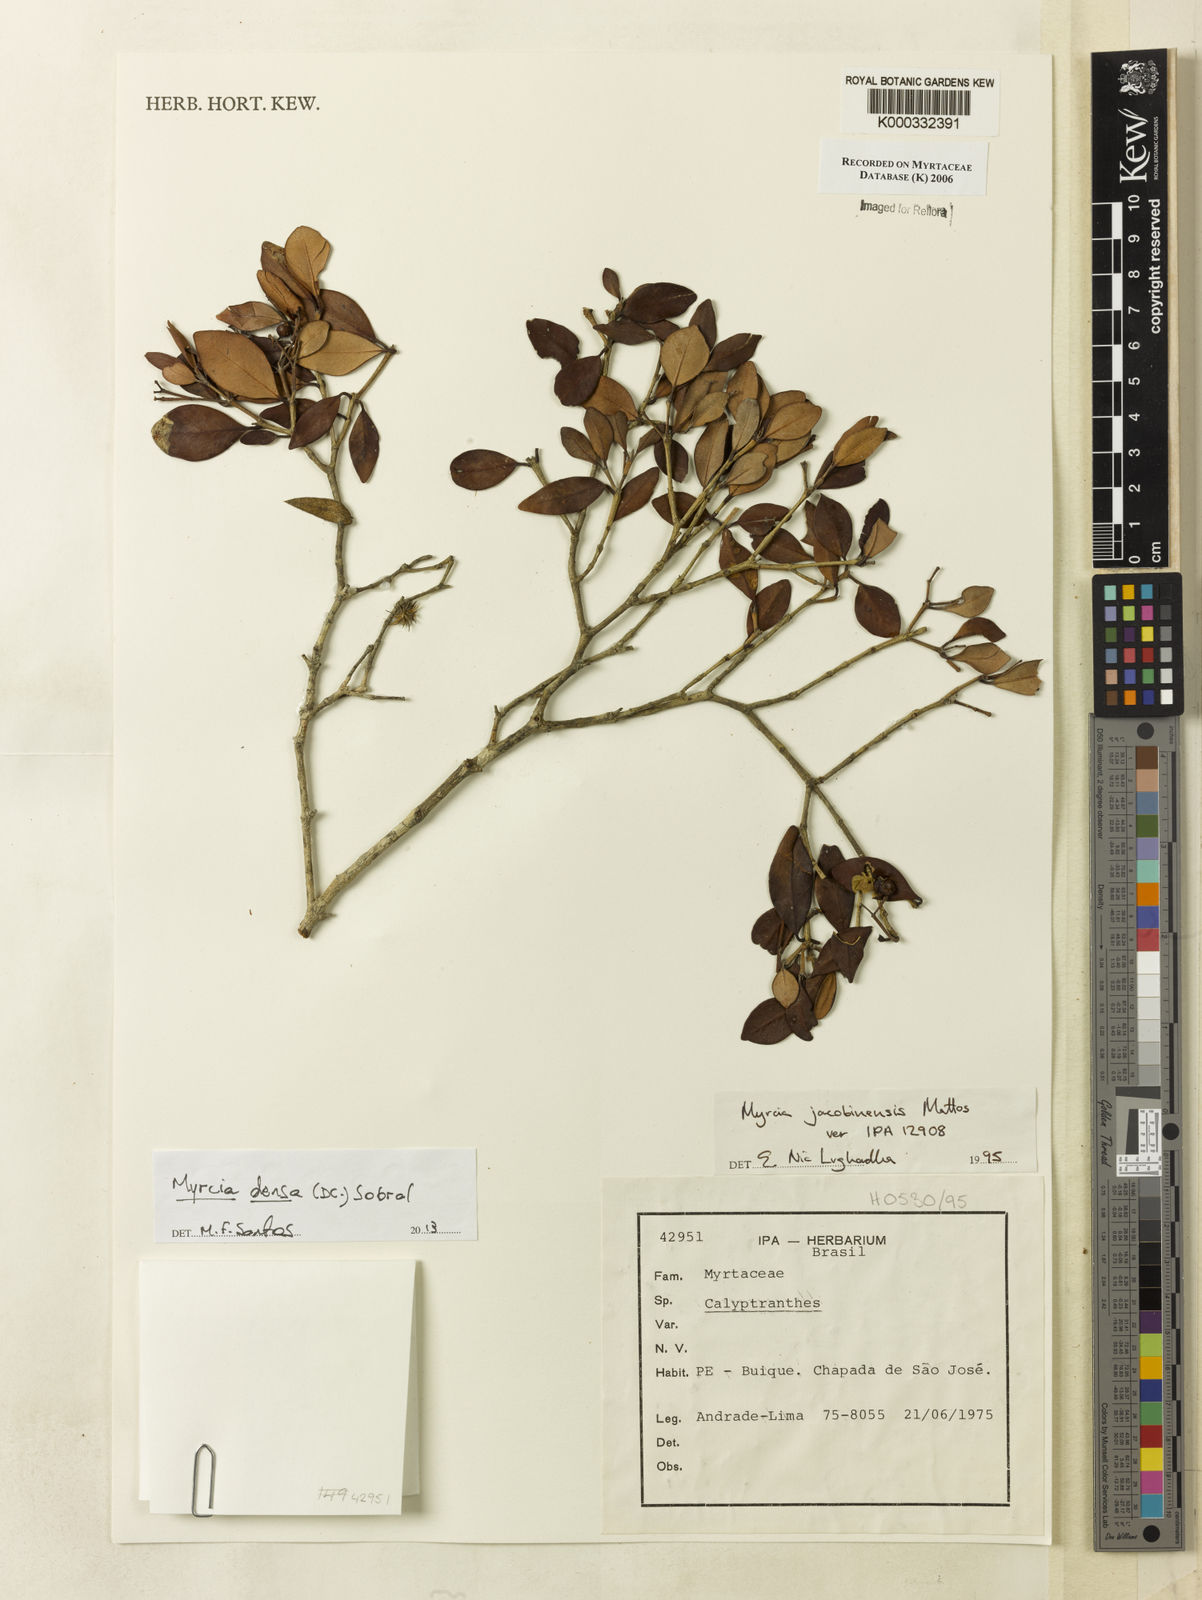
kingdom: Plantae
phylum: Tracheophyta
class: Magnoliopsida
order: Myrtales
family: Myrtaceae
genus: Myrcia
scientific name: Myrcia jacobinensis
